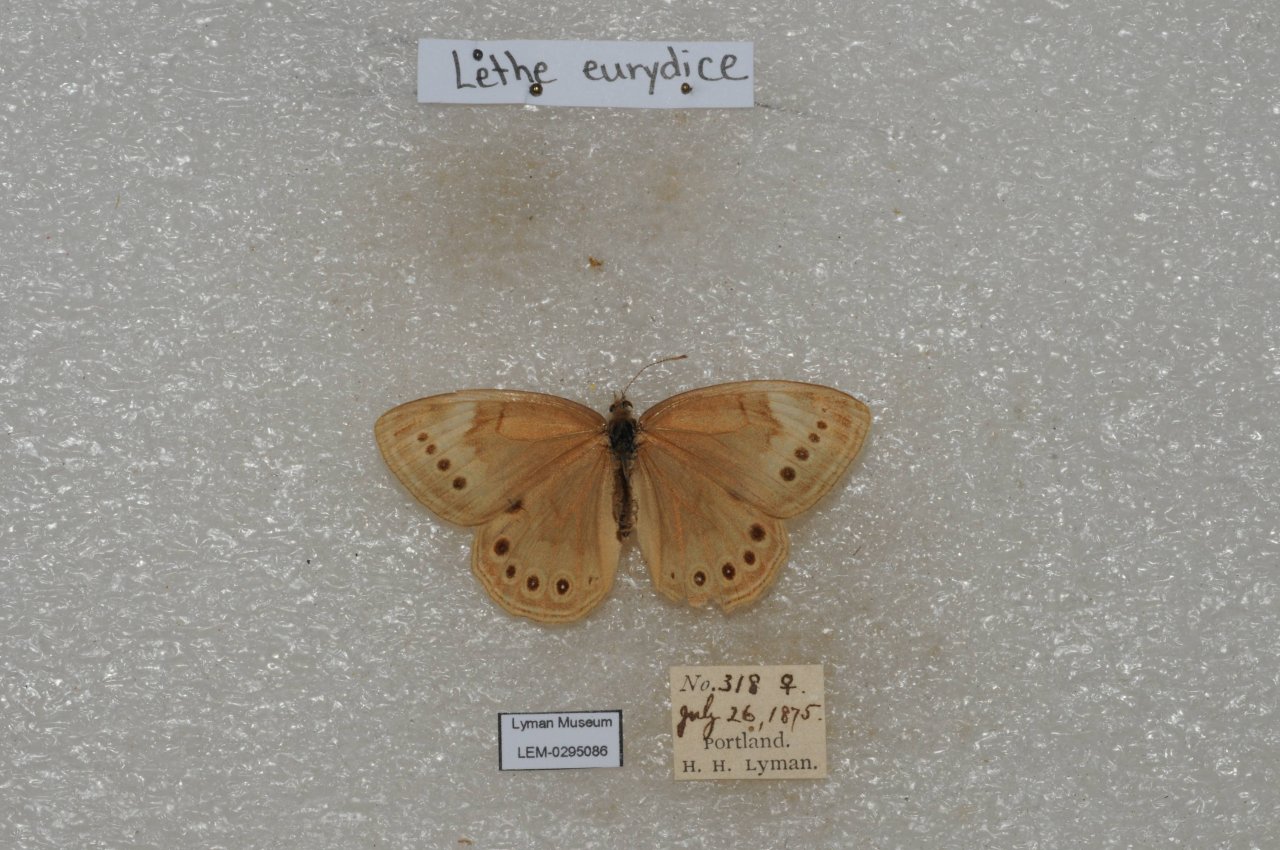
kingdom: Animalia
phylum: Arthropoda
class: Insecta
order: Lepidoptera
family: Nymphalidae
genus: Lethe
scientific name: Lethe eurydice
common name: Eyed Brown
